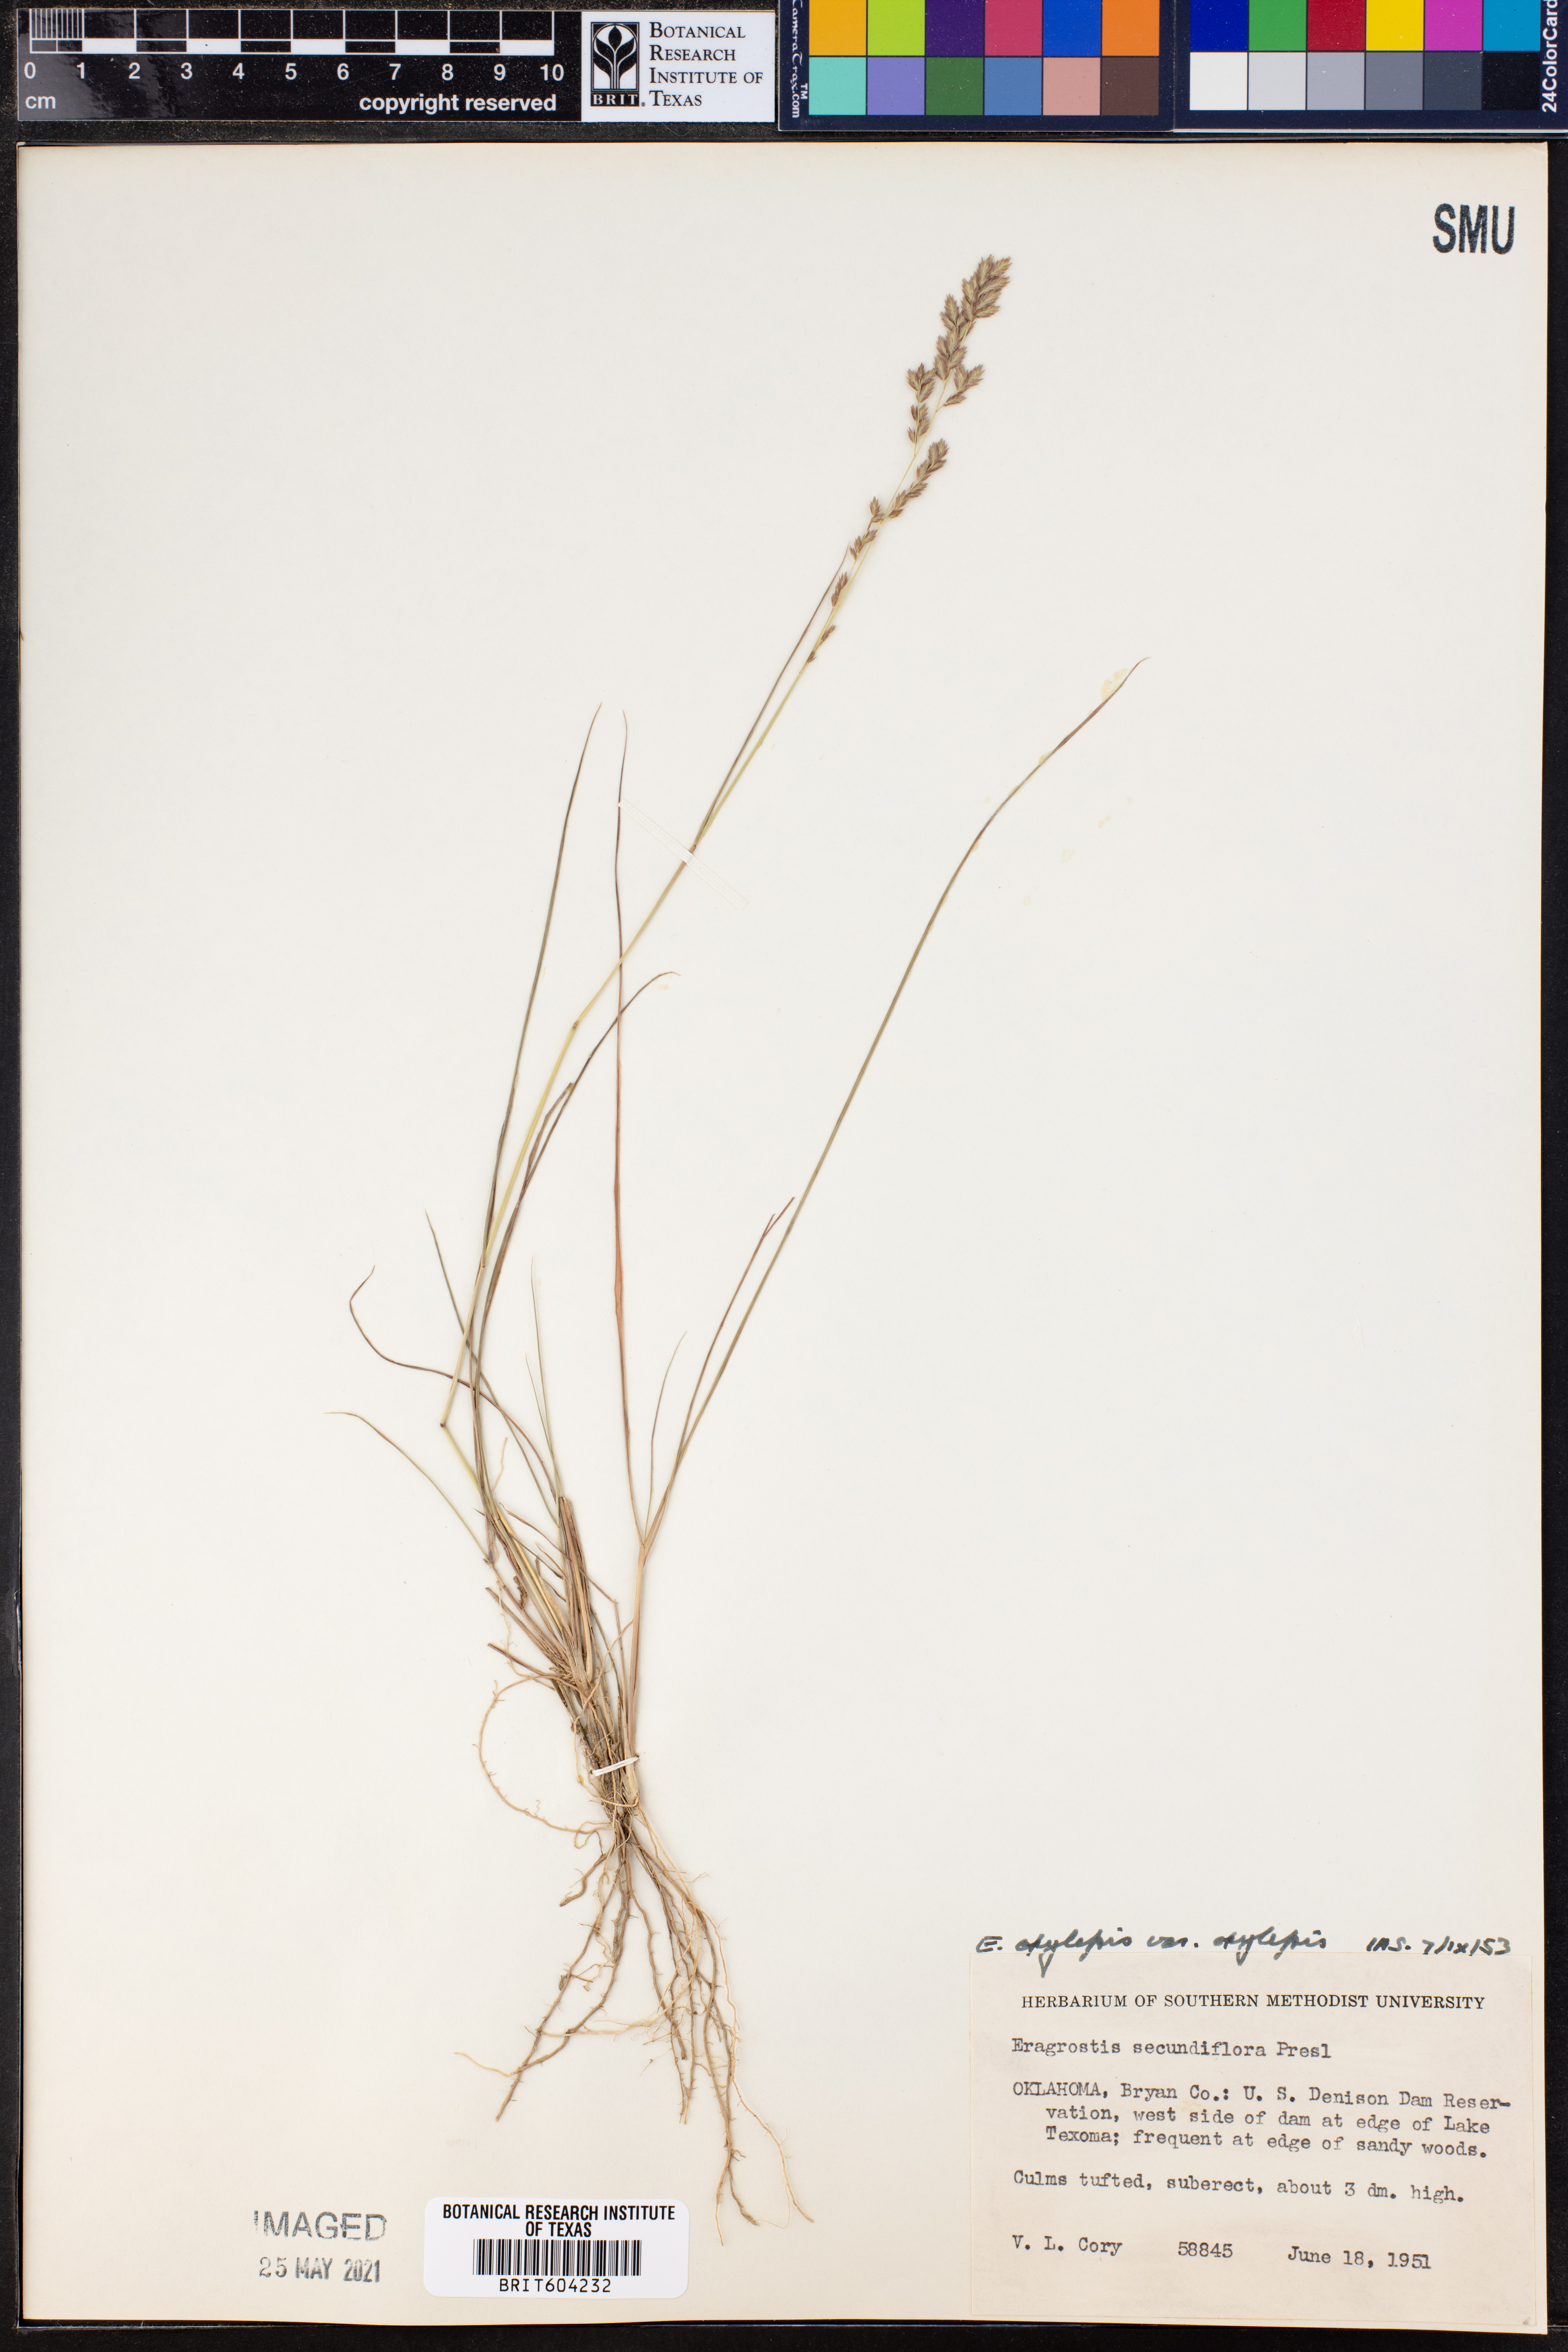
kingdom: Plantae
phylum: Tracheophyta
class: Liliopsida
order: Poales
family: Poaceae
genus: Eragrostis
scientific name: Eragrostis secundiflora
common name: Red love grass
